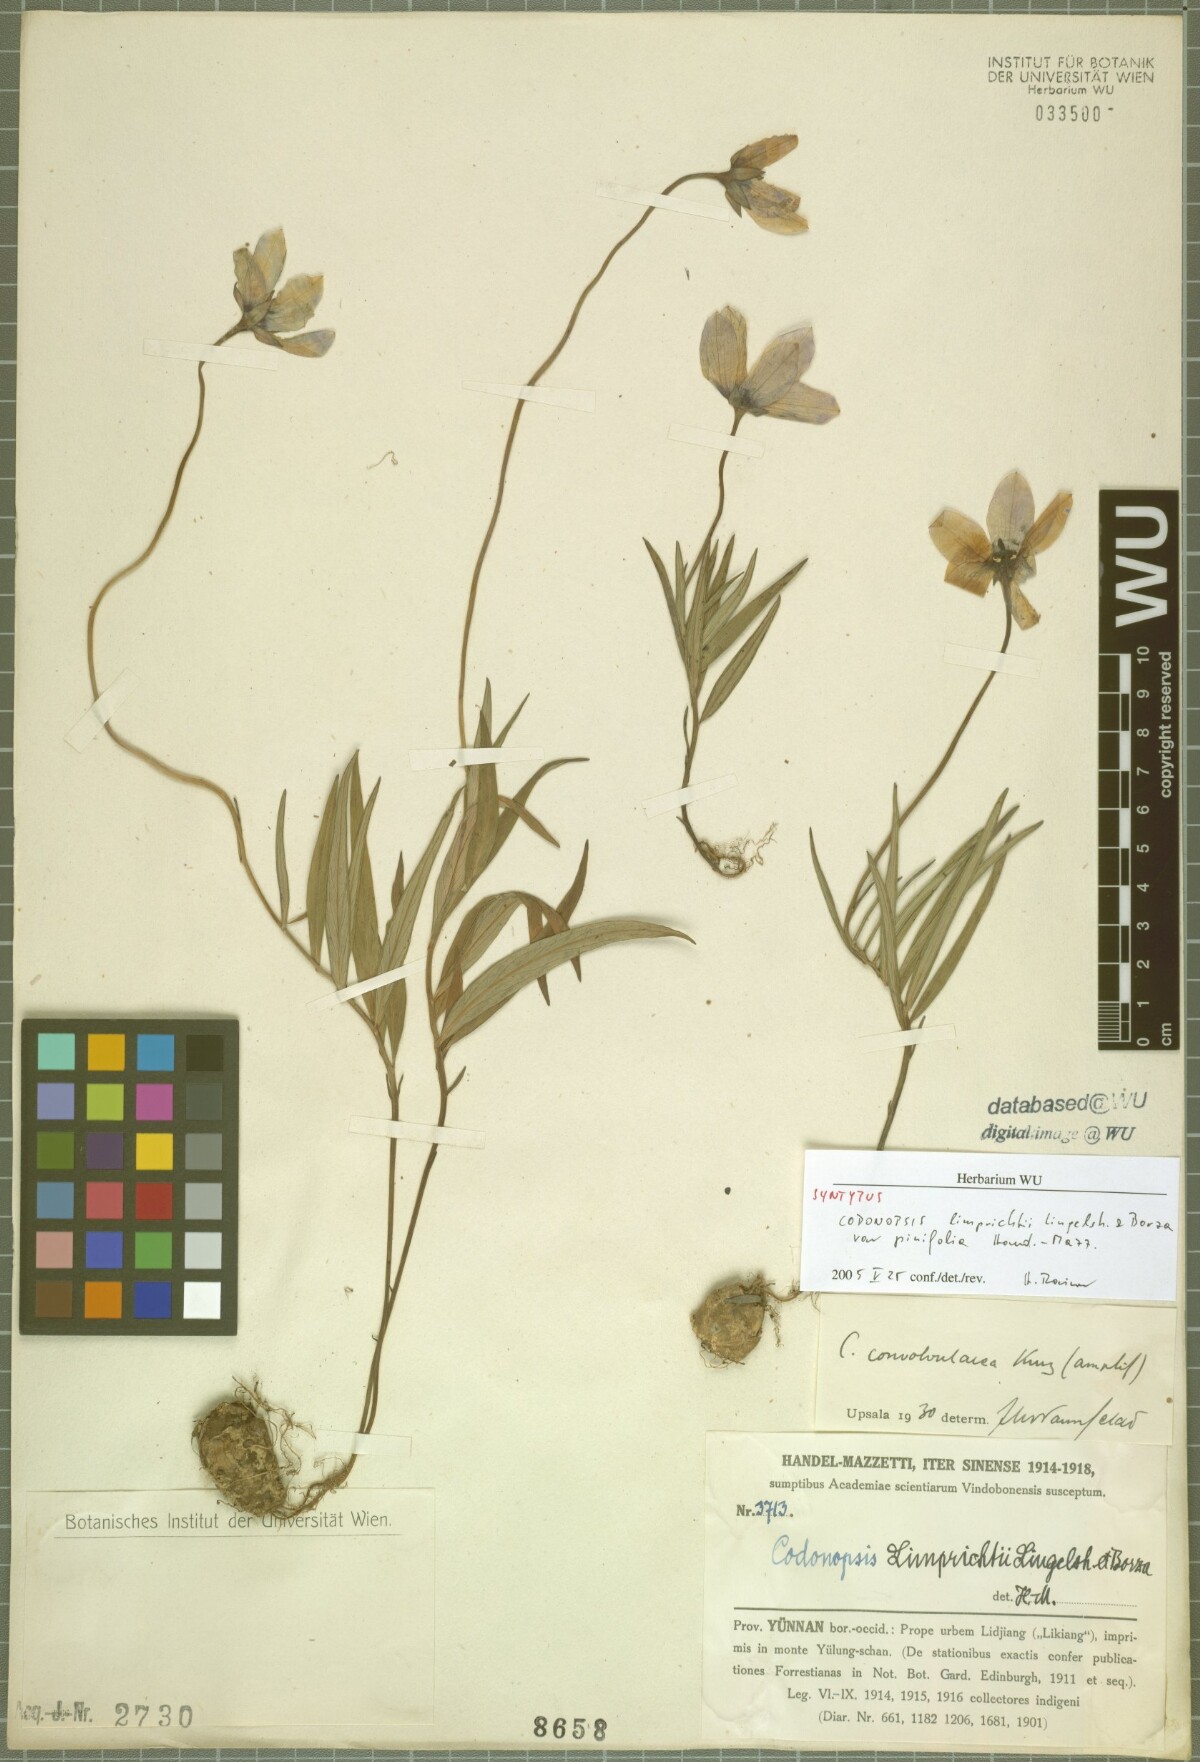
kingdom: Plantae
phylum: Tracheophyta
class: Magnoliopsida
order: Asterales
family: Campanulaceae
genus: Pseudocodon
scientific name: Pseudocodon convolvulaceus
